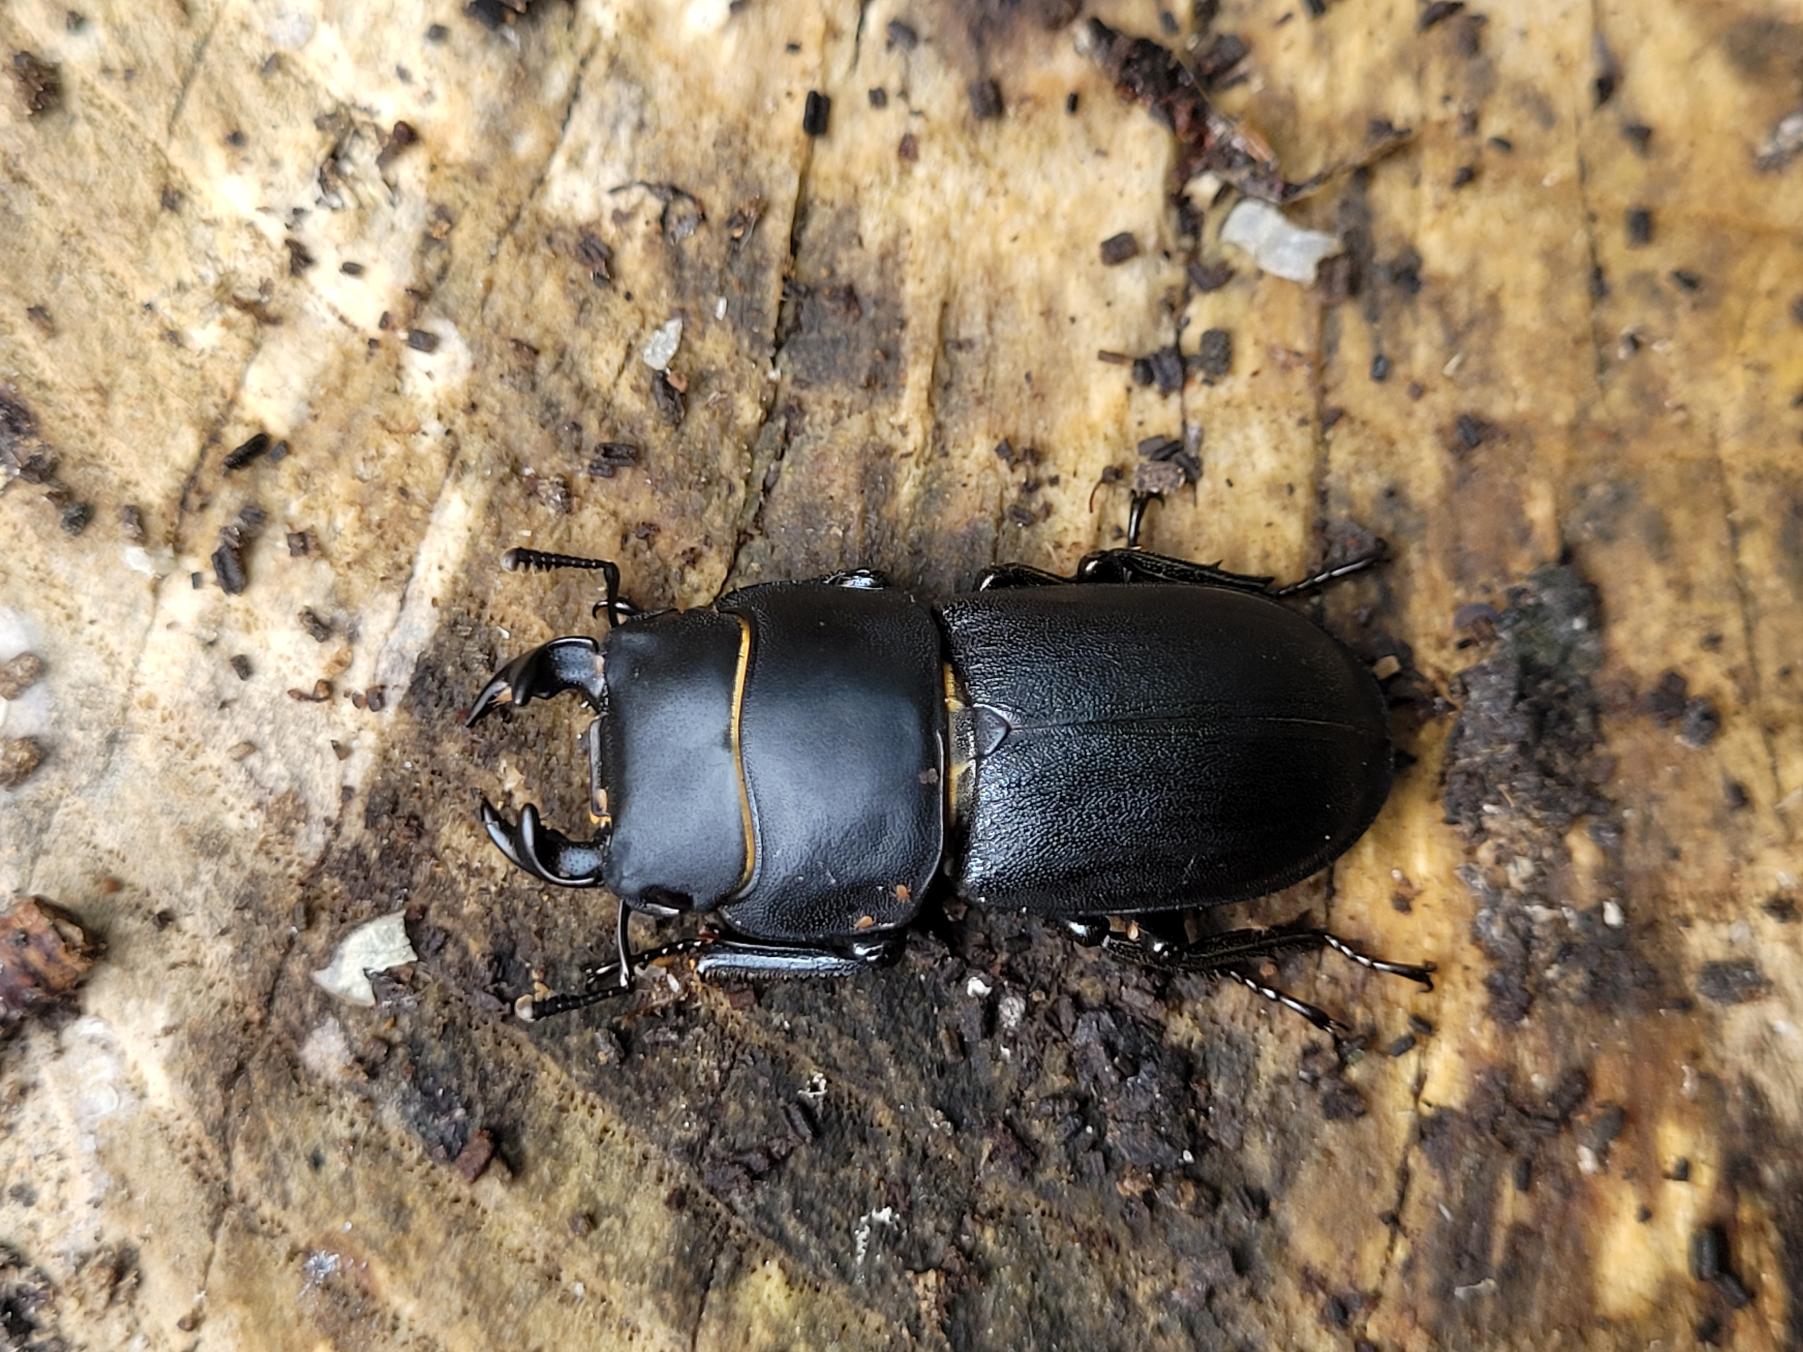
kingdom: Animalia
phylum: Arthropoda
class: Insecta
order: Coleoptera
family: Lucanidae
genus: Dorcus
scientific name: Dorcus parallelipipedus
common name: Bøghjort
